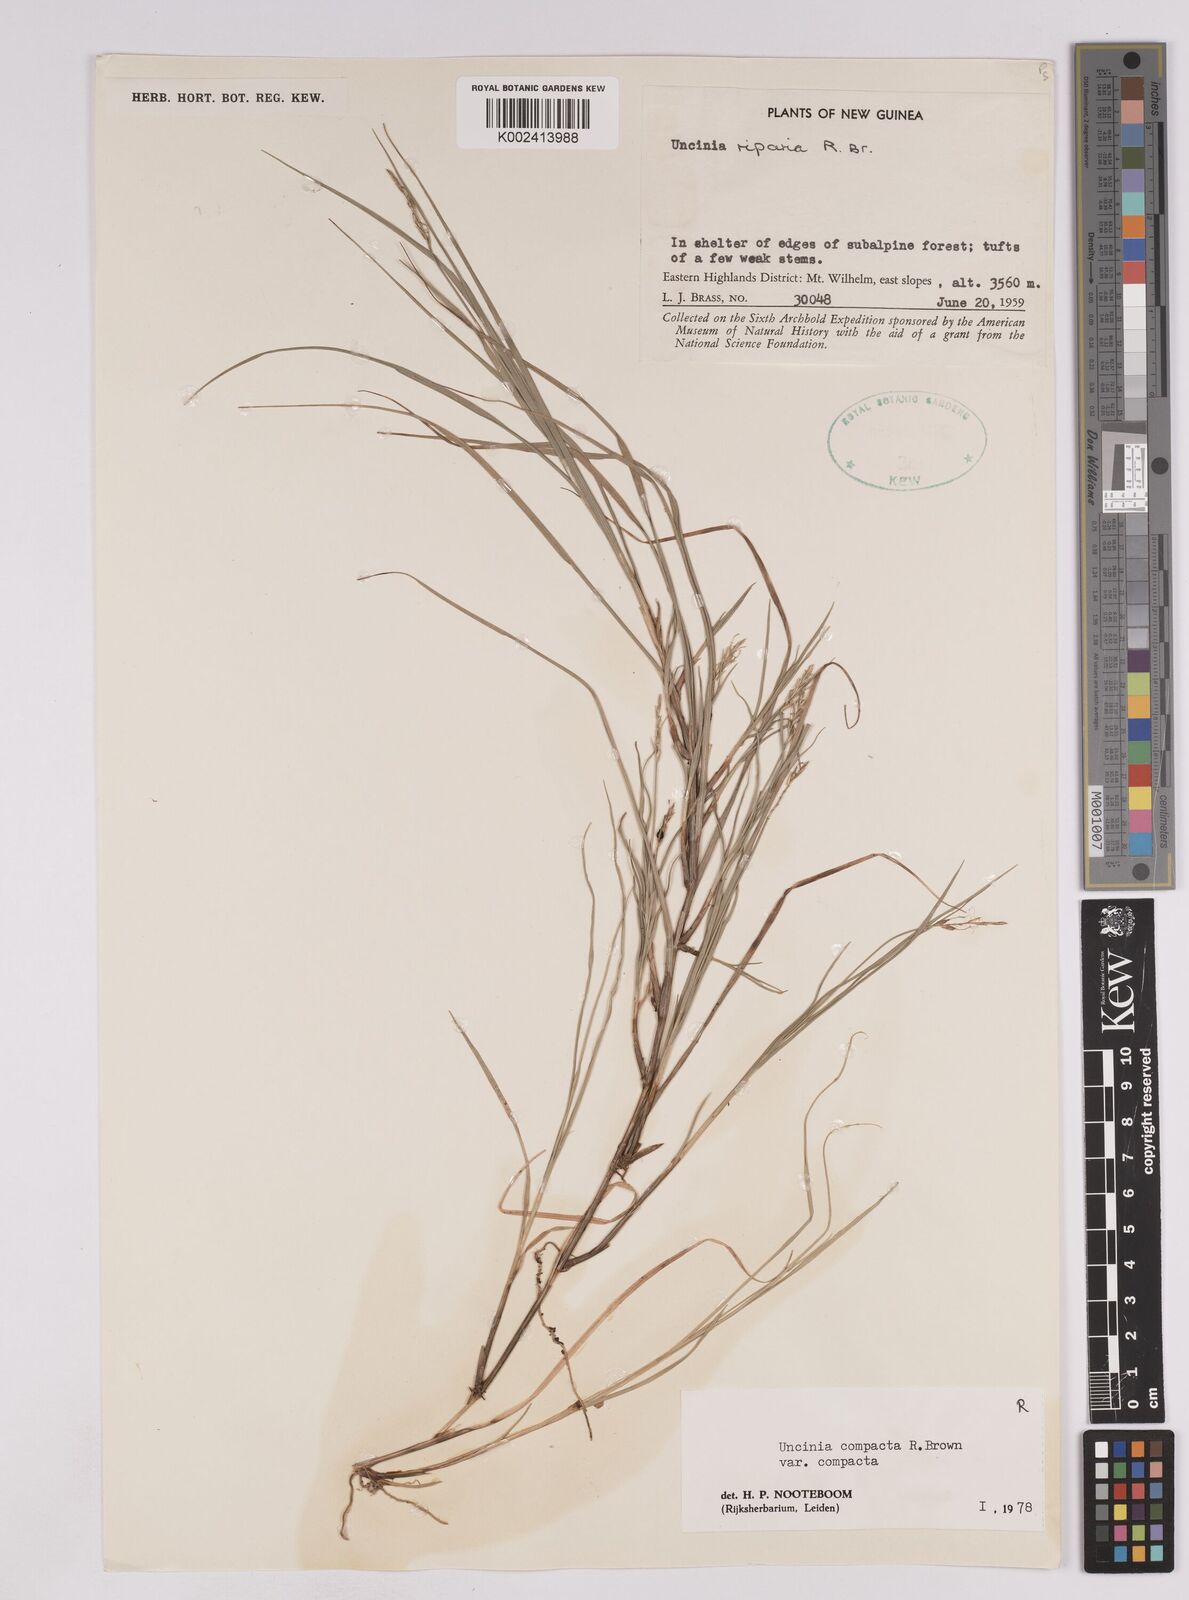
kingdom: Plantae
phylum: Tracheophyta
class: Liliopsida
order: Poales
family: Cyperaceae
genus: Carex
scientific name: Carex austrocompacta
